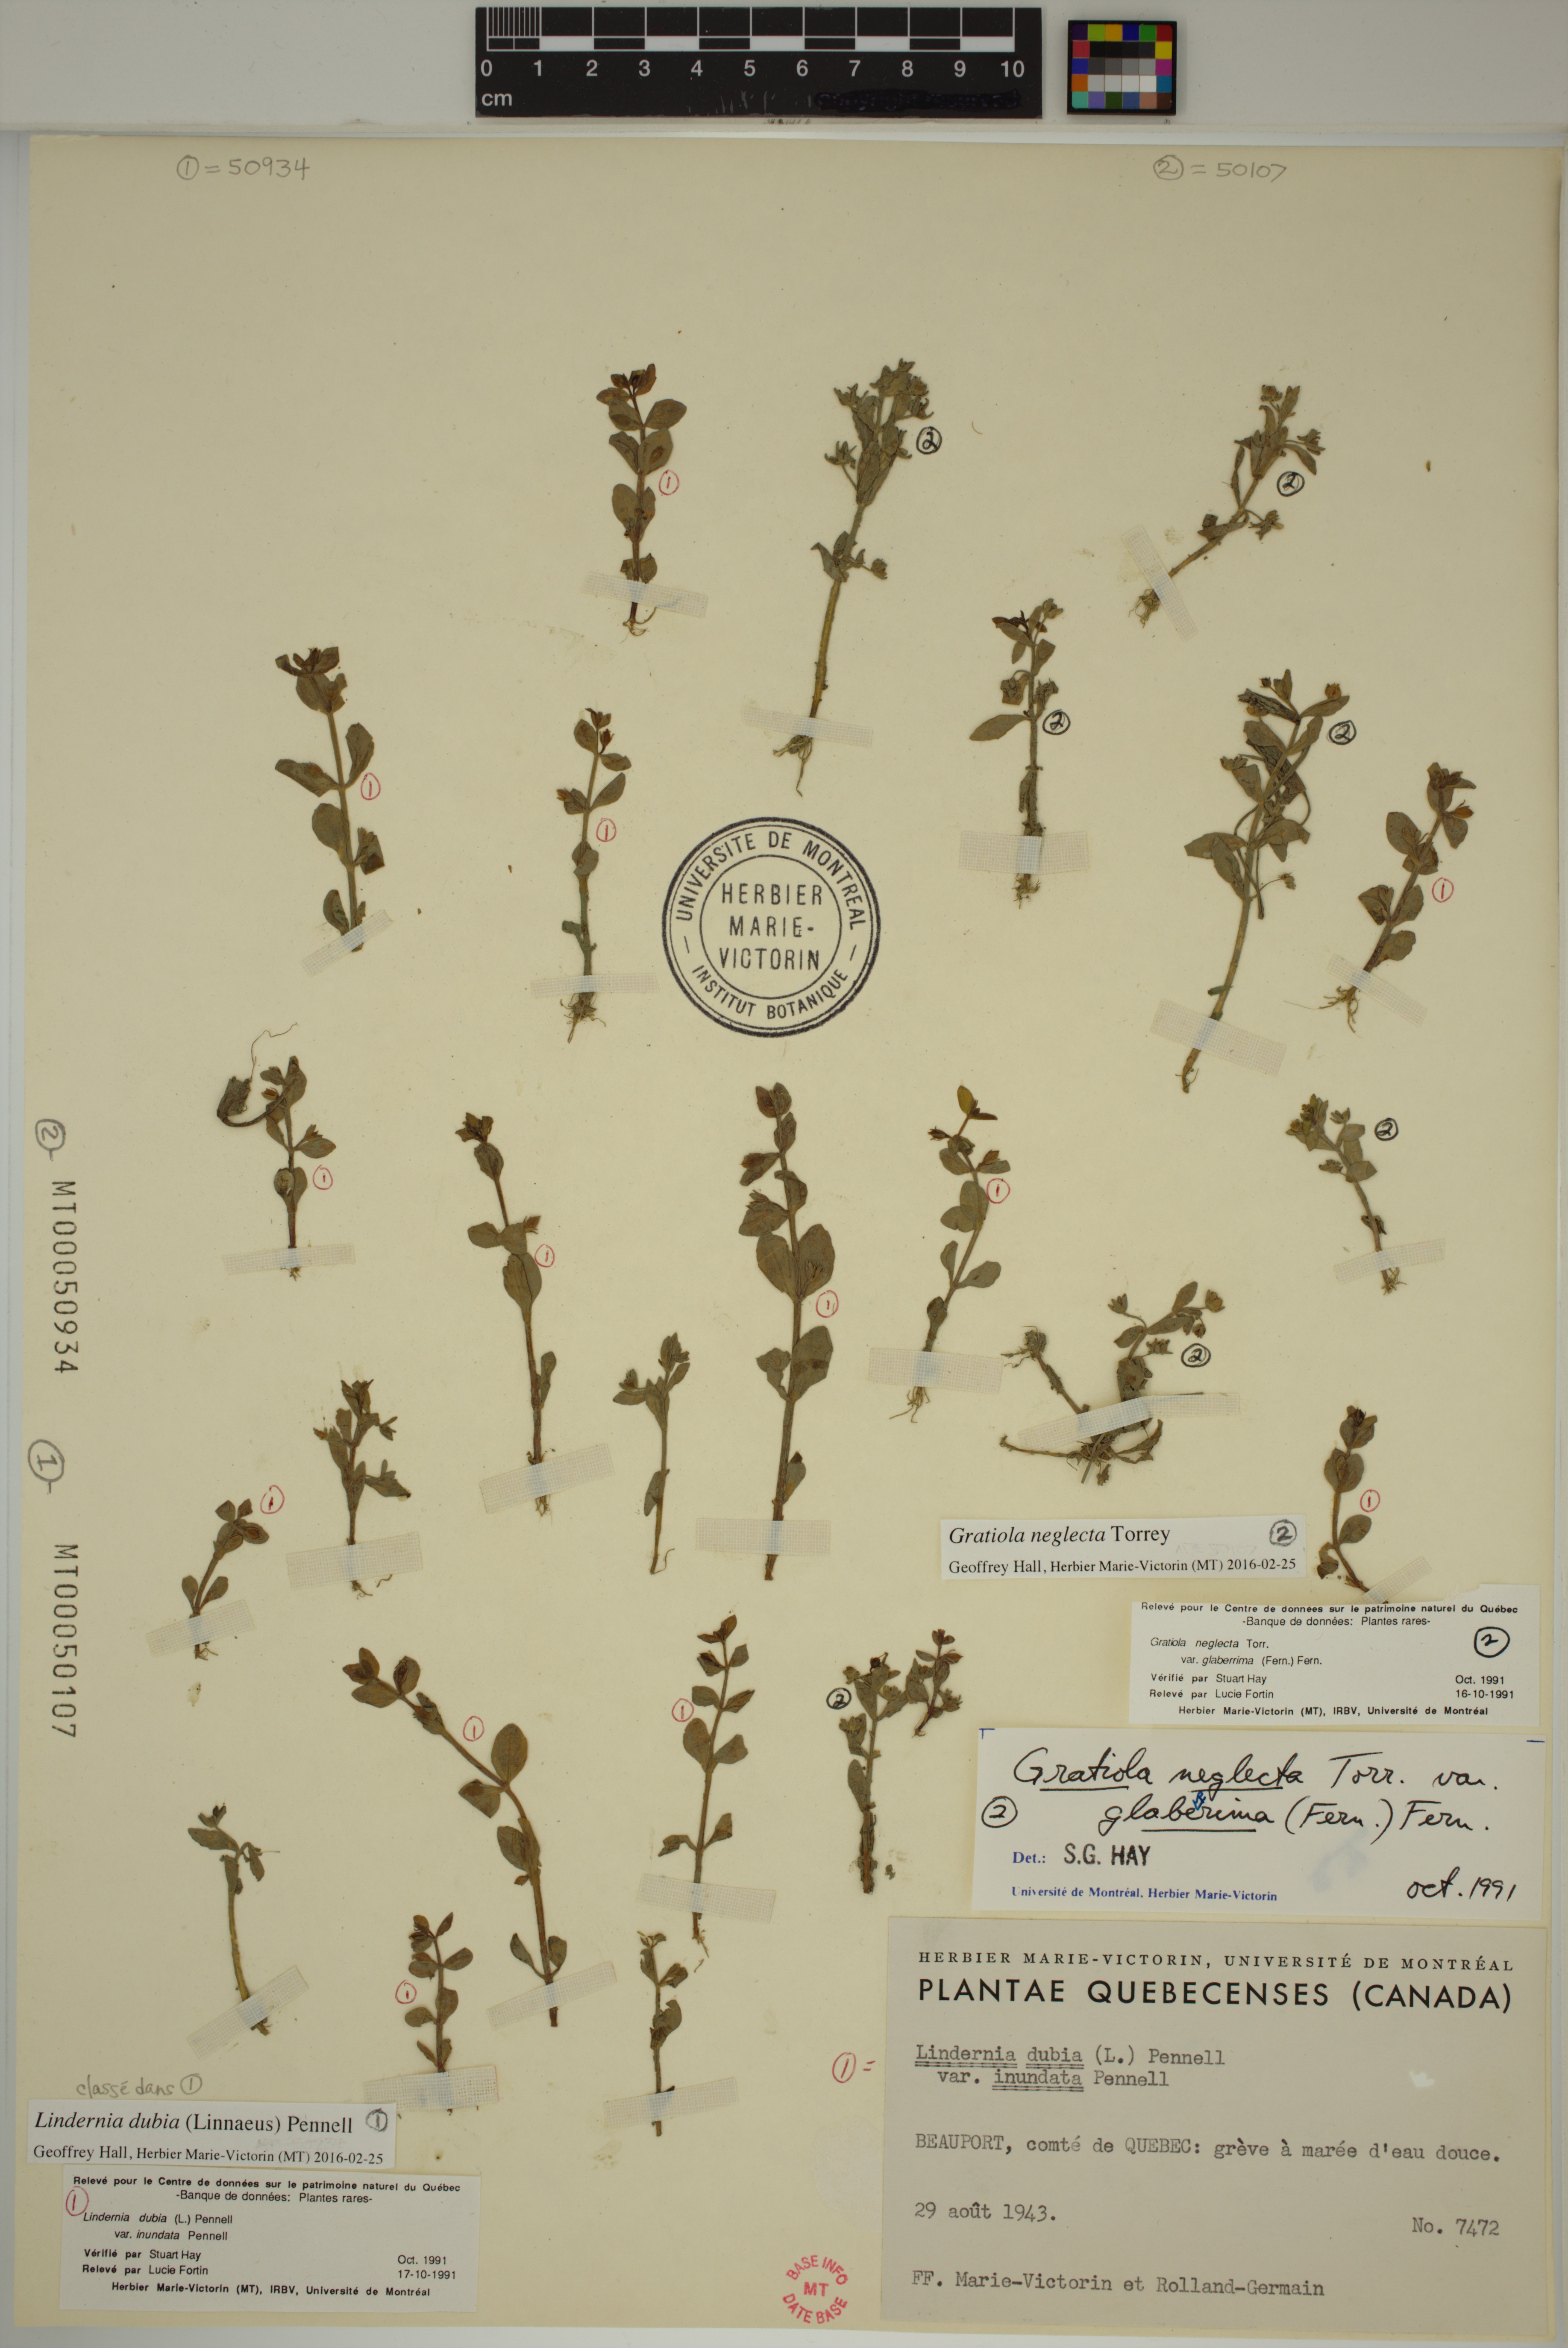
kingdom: Plantae
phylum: Tracheophyta
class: Magnoliopsida
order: Lamiales
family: Linderniaceae
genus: Lindernia
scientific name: Lindernia dubia
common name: Annual false pimpernel
